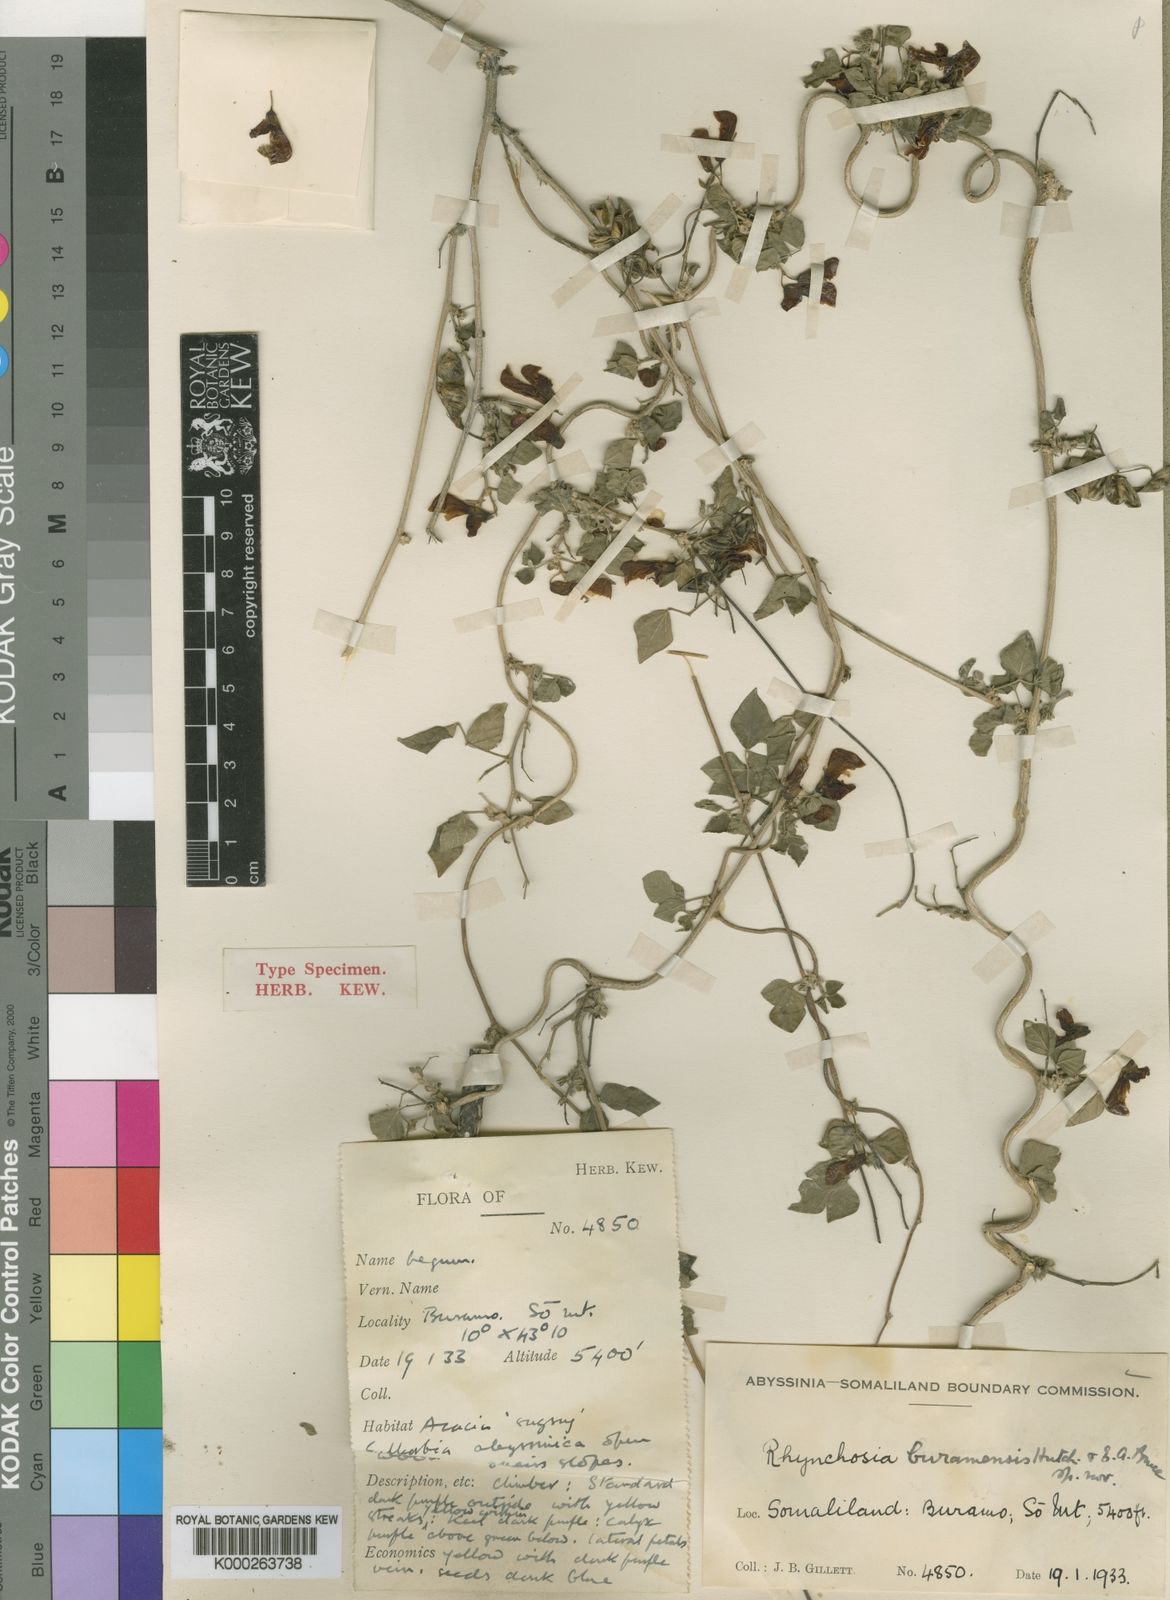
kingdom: Plantae
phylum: Tracheophyta
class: Magnoliopsida
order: Fabales
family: Fabaceae
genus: Rhynchosia
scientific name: Rhynchosia elegans
